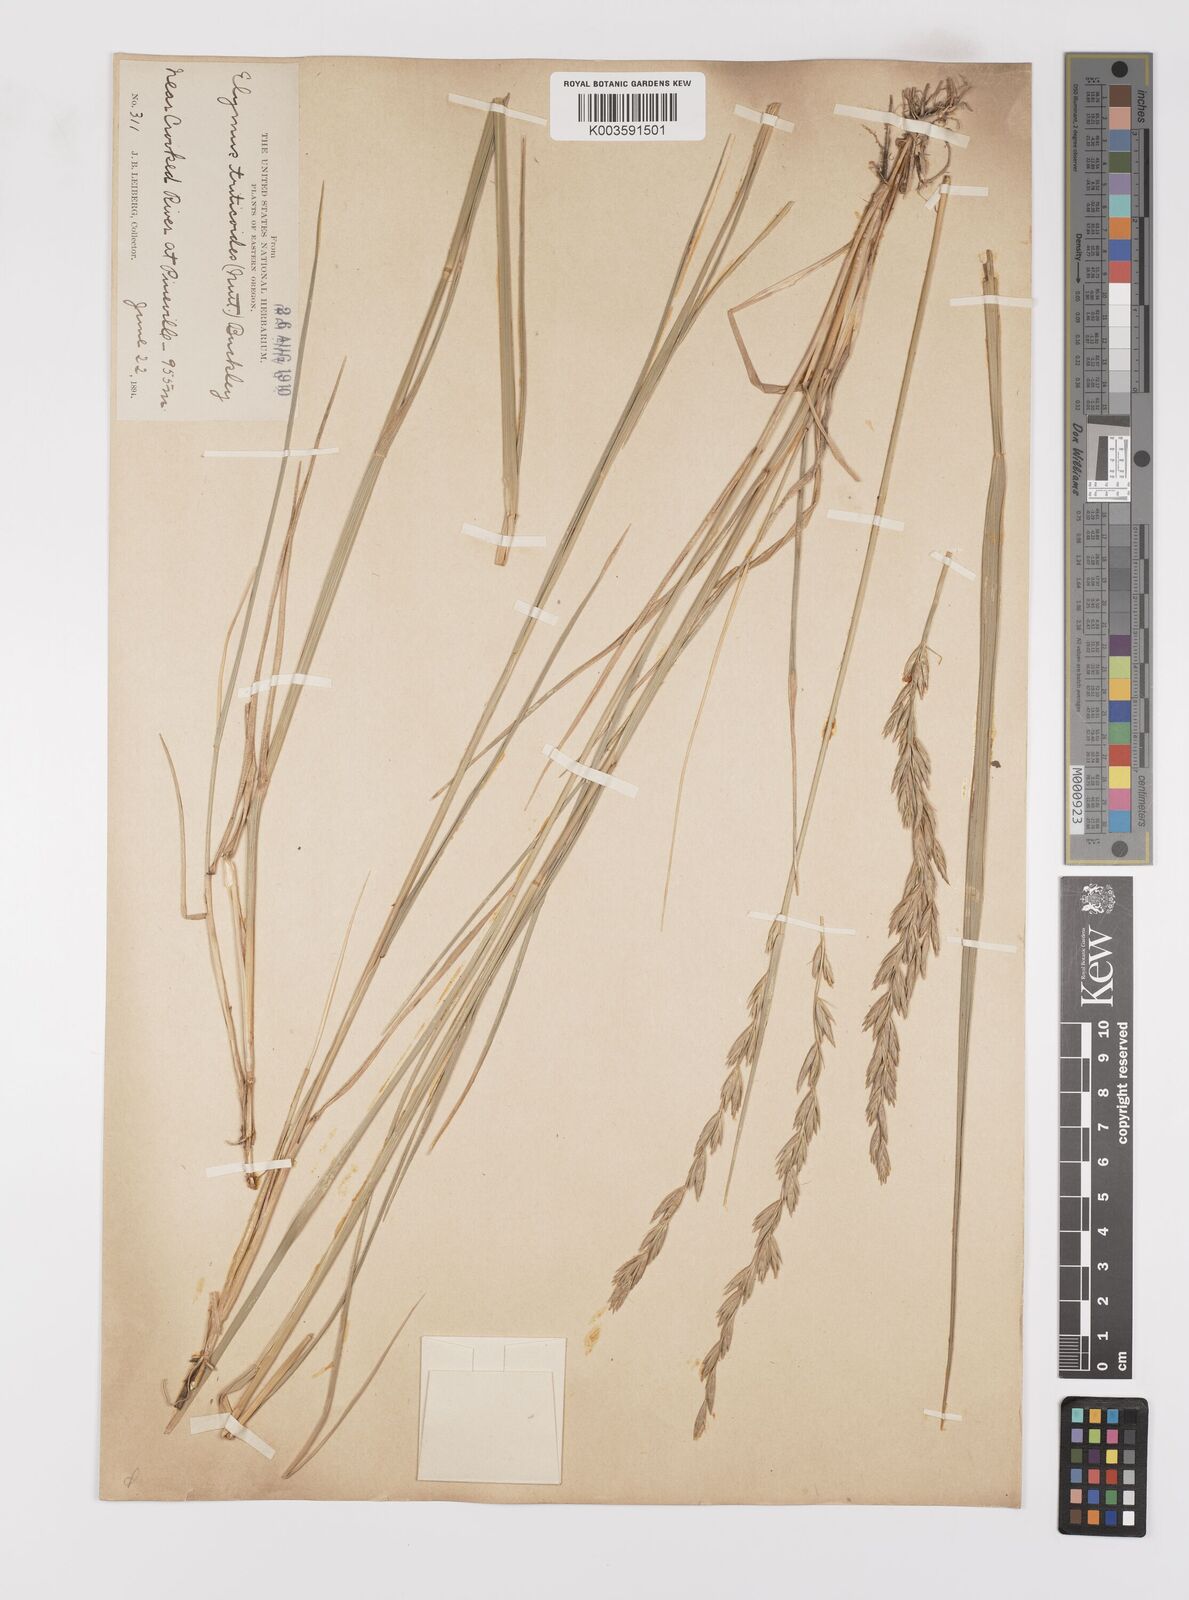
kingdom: Plantae
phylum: Tracheophyta
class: Liliopsida
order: Poales
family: Poaceae
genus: Leymus
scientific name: Leymus triticoides
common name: Beardless wild rye
